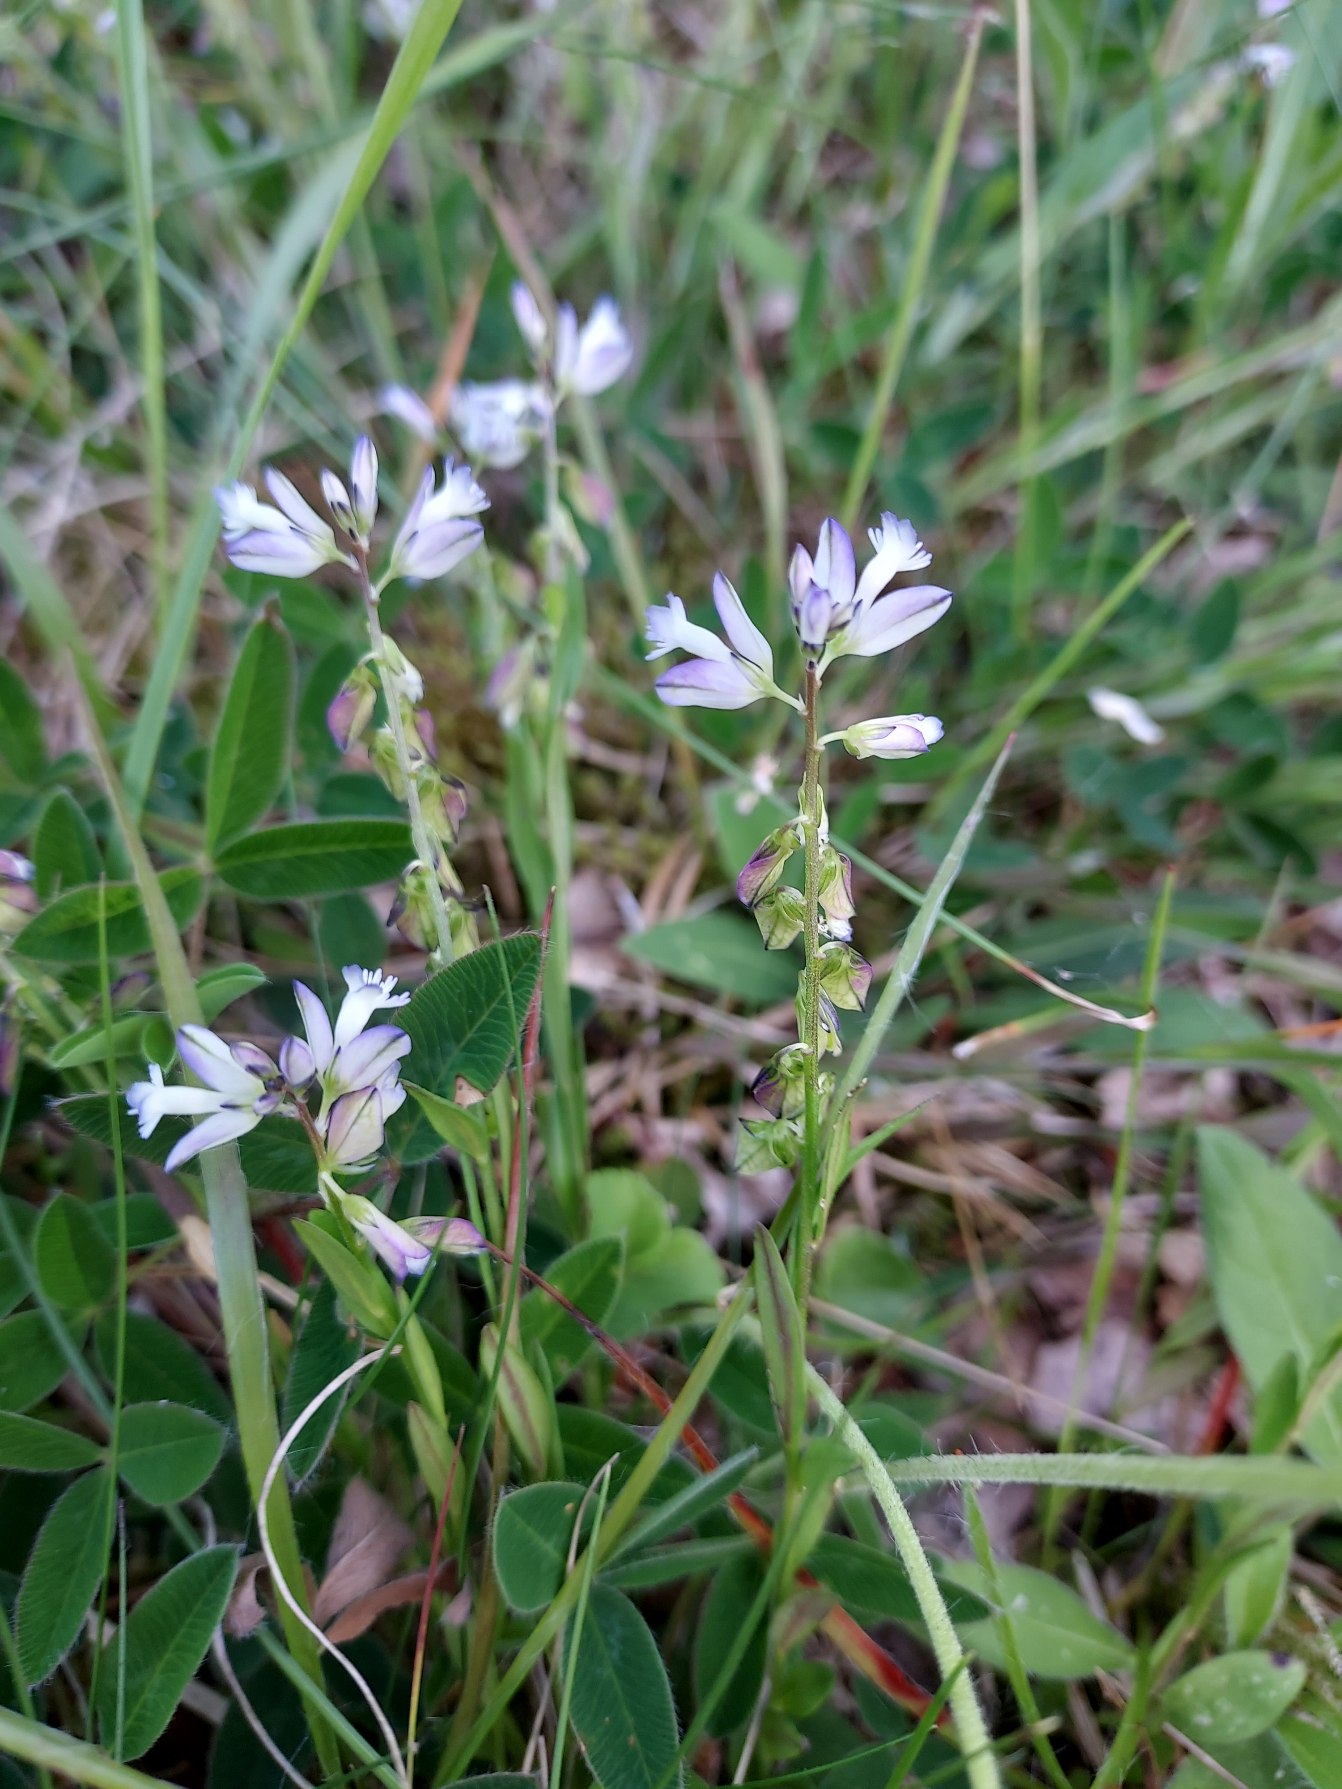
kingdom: Plantae
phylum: Tracheophyta
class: Magnoliopsida
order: Fabales
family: Polygalaceae
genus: Polygala
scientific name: Polygala vulgaris
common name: Almindelig mælkeurt
